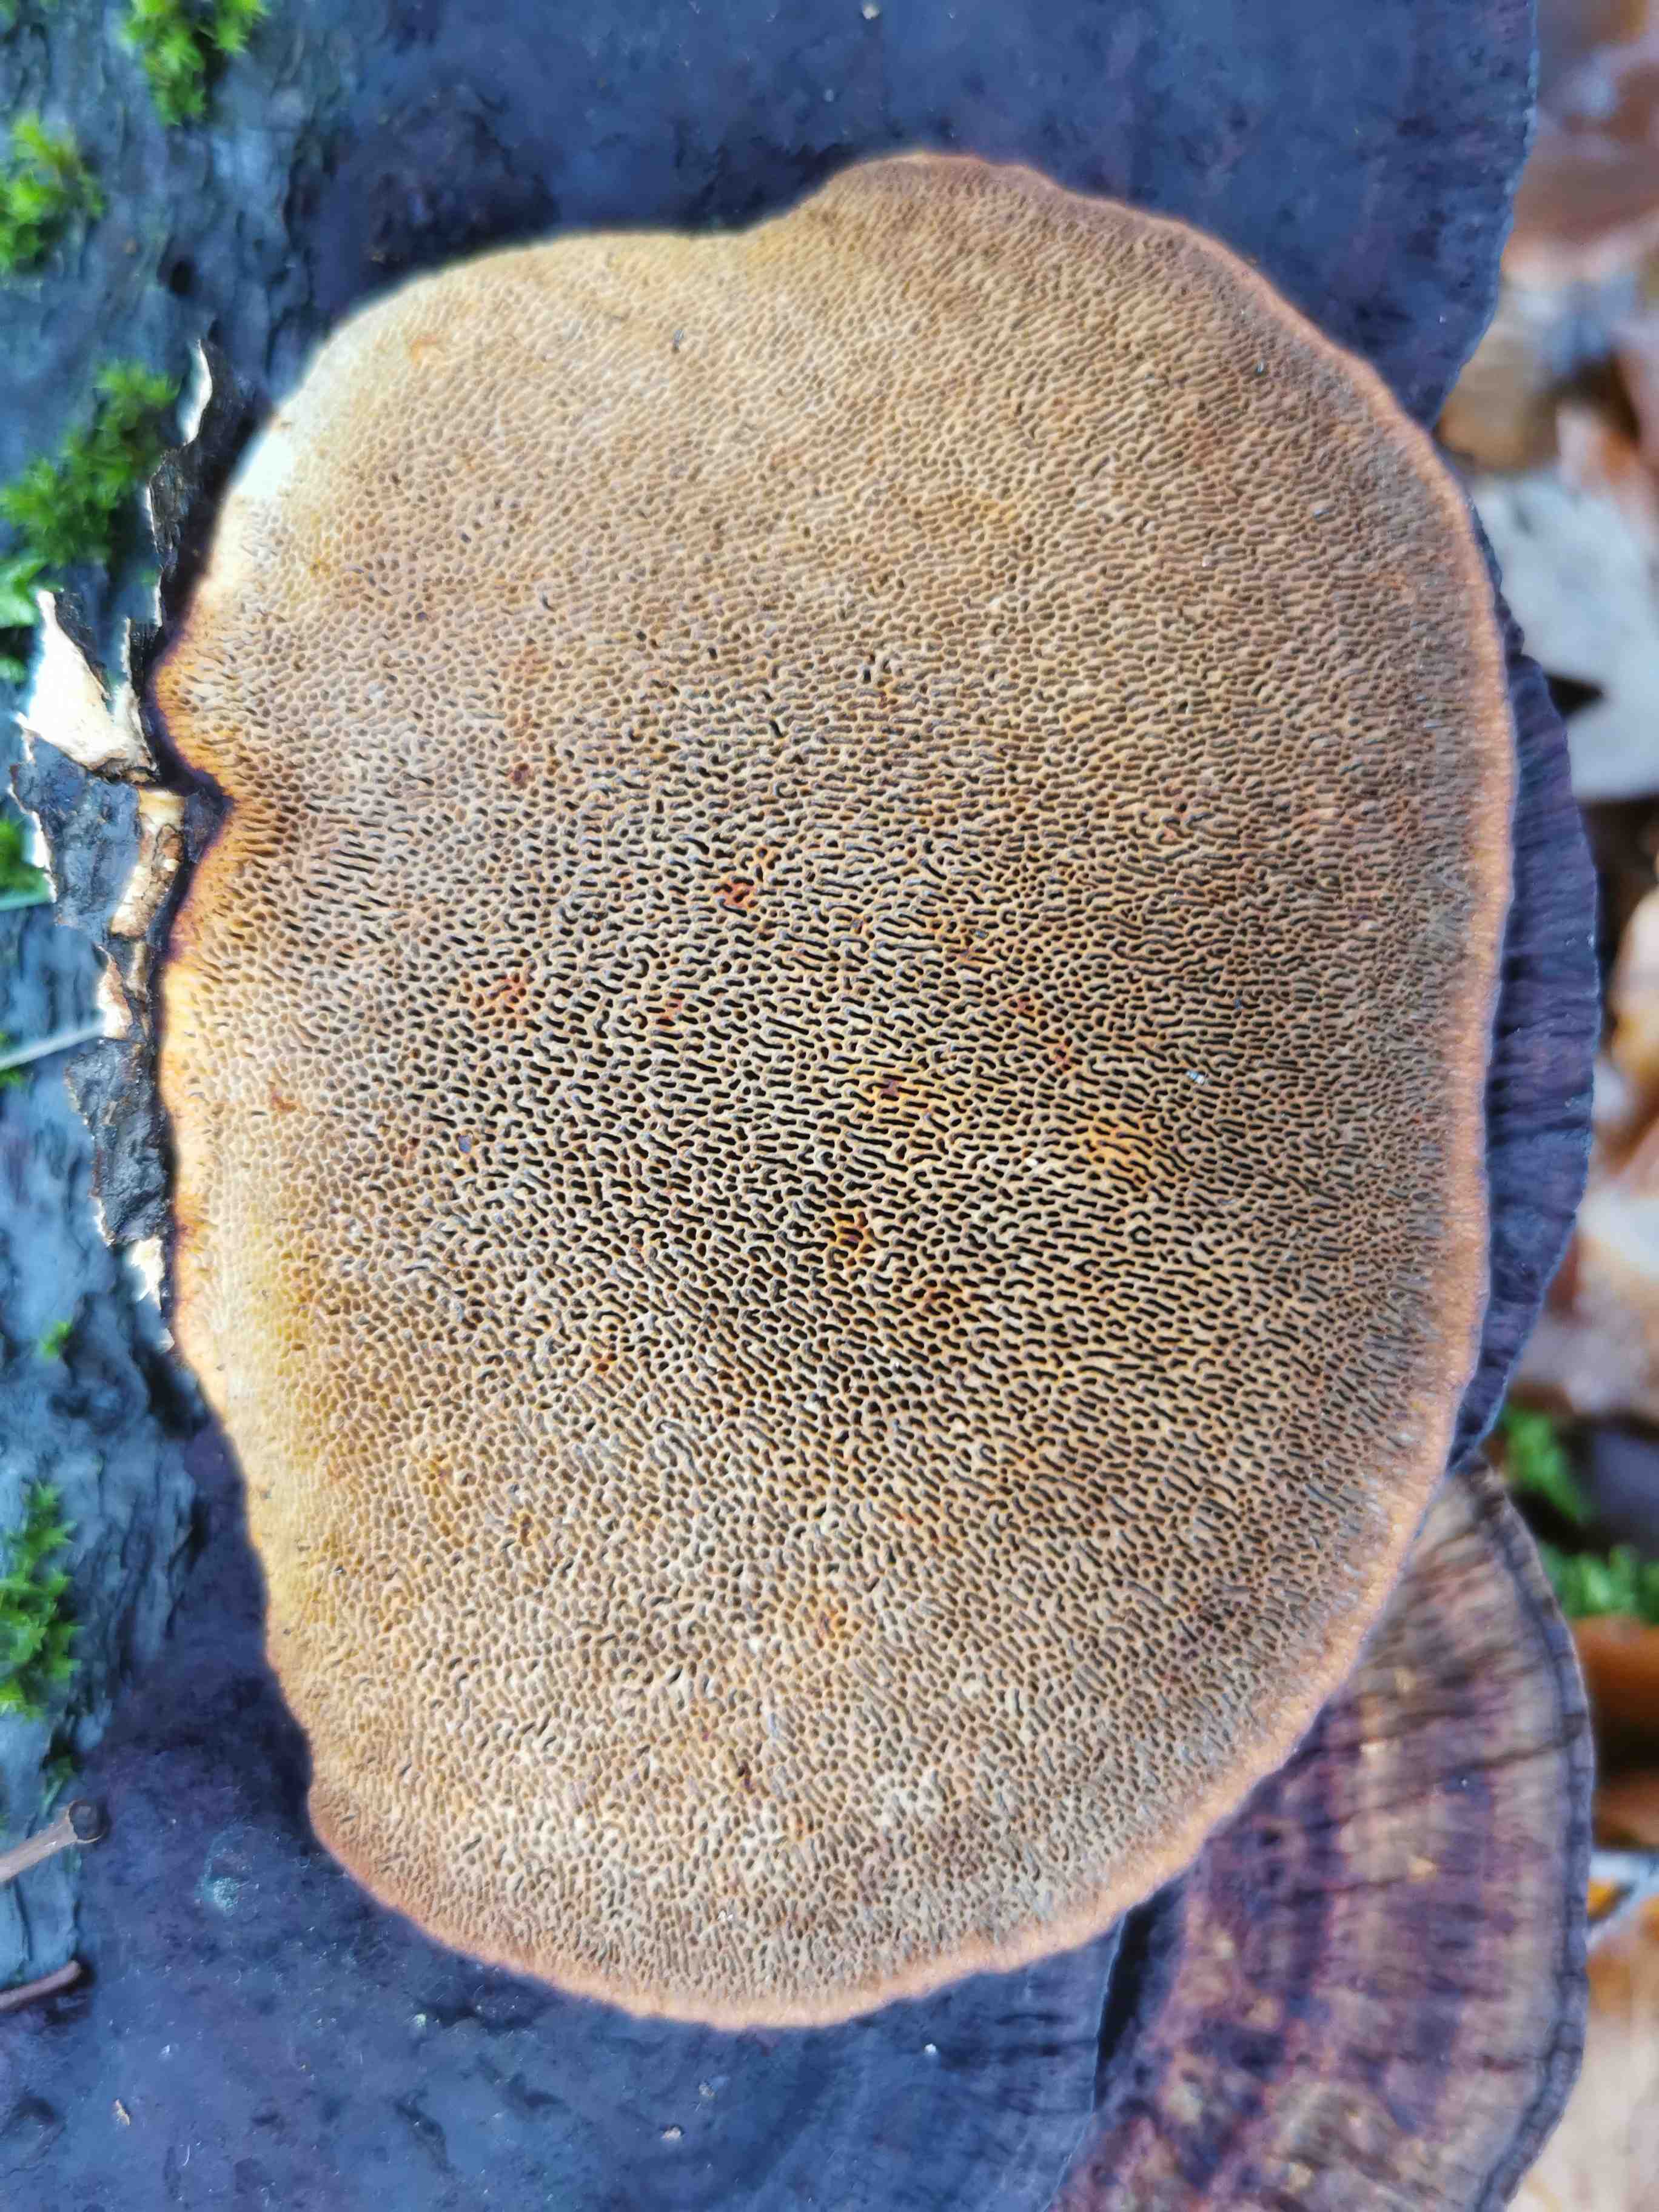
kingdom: Fungi
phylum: Basidiomycota
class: Agaricomycetes
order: Polyporales
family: Polyporaceae
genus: Daedaleopsis
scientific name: Daedaleopsis confragosa
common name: rødmende læderporesvamp
